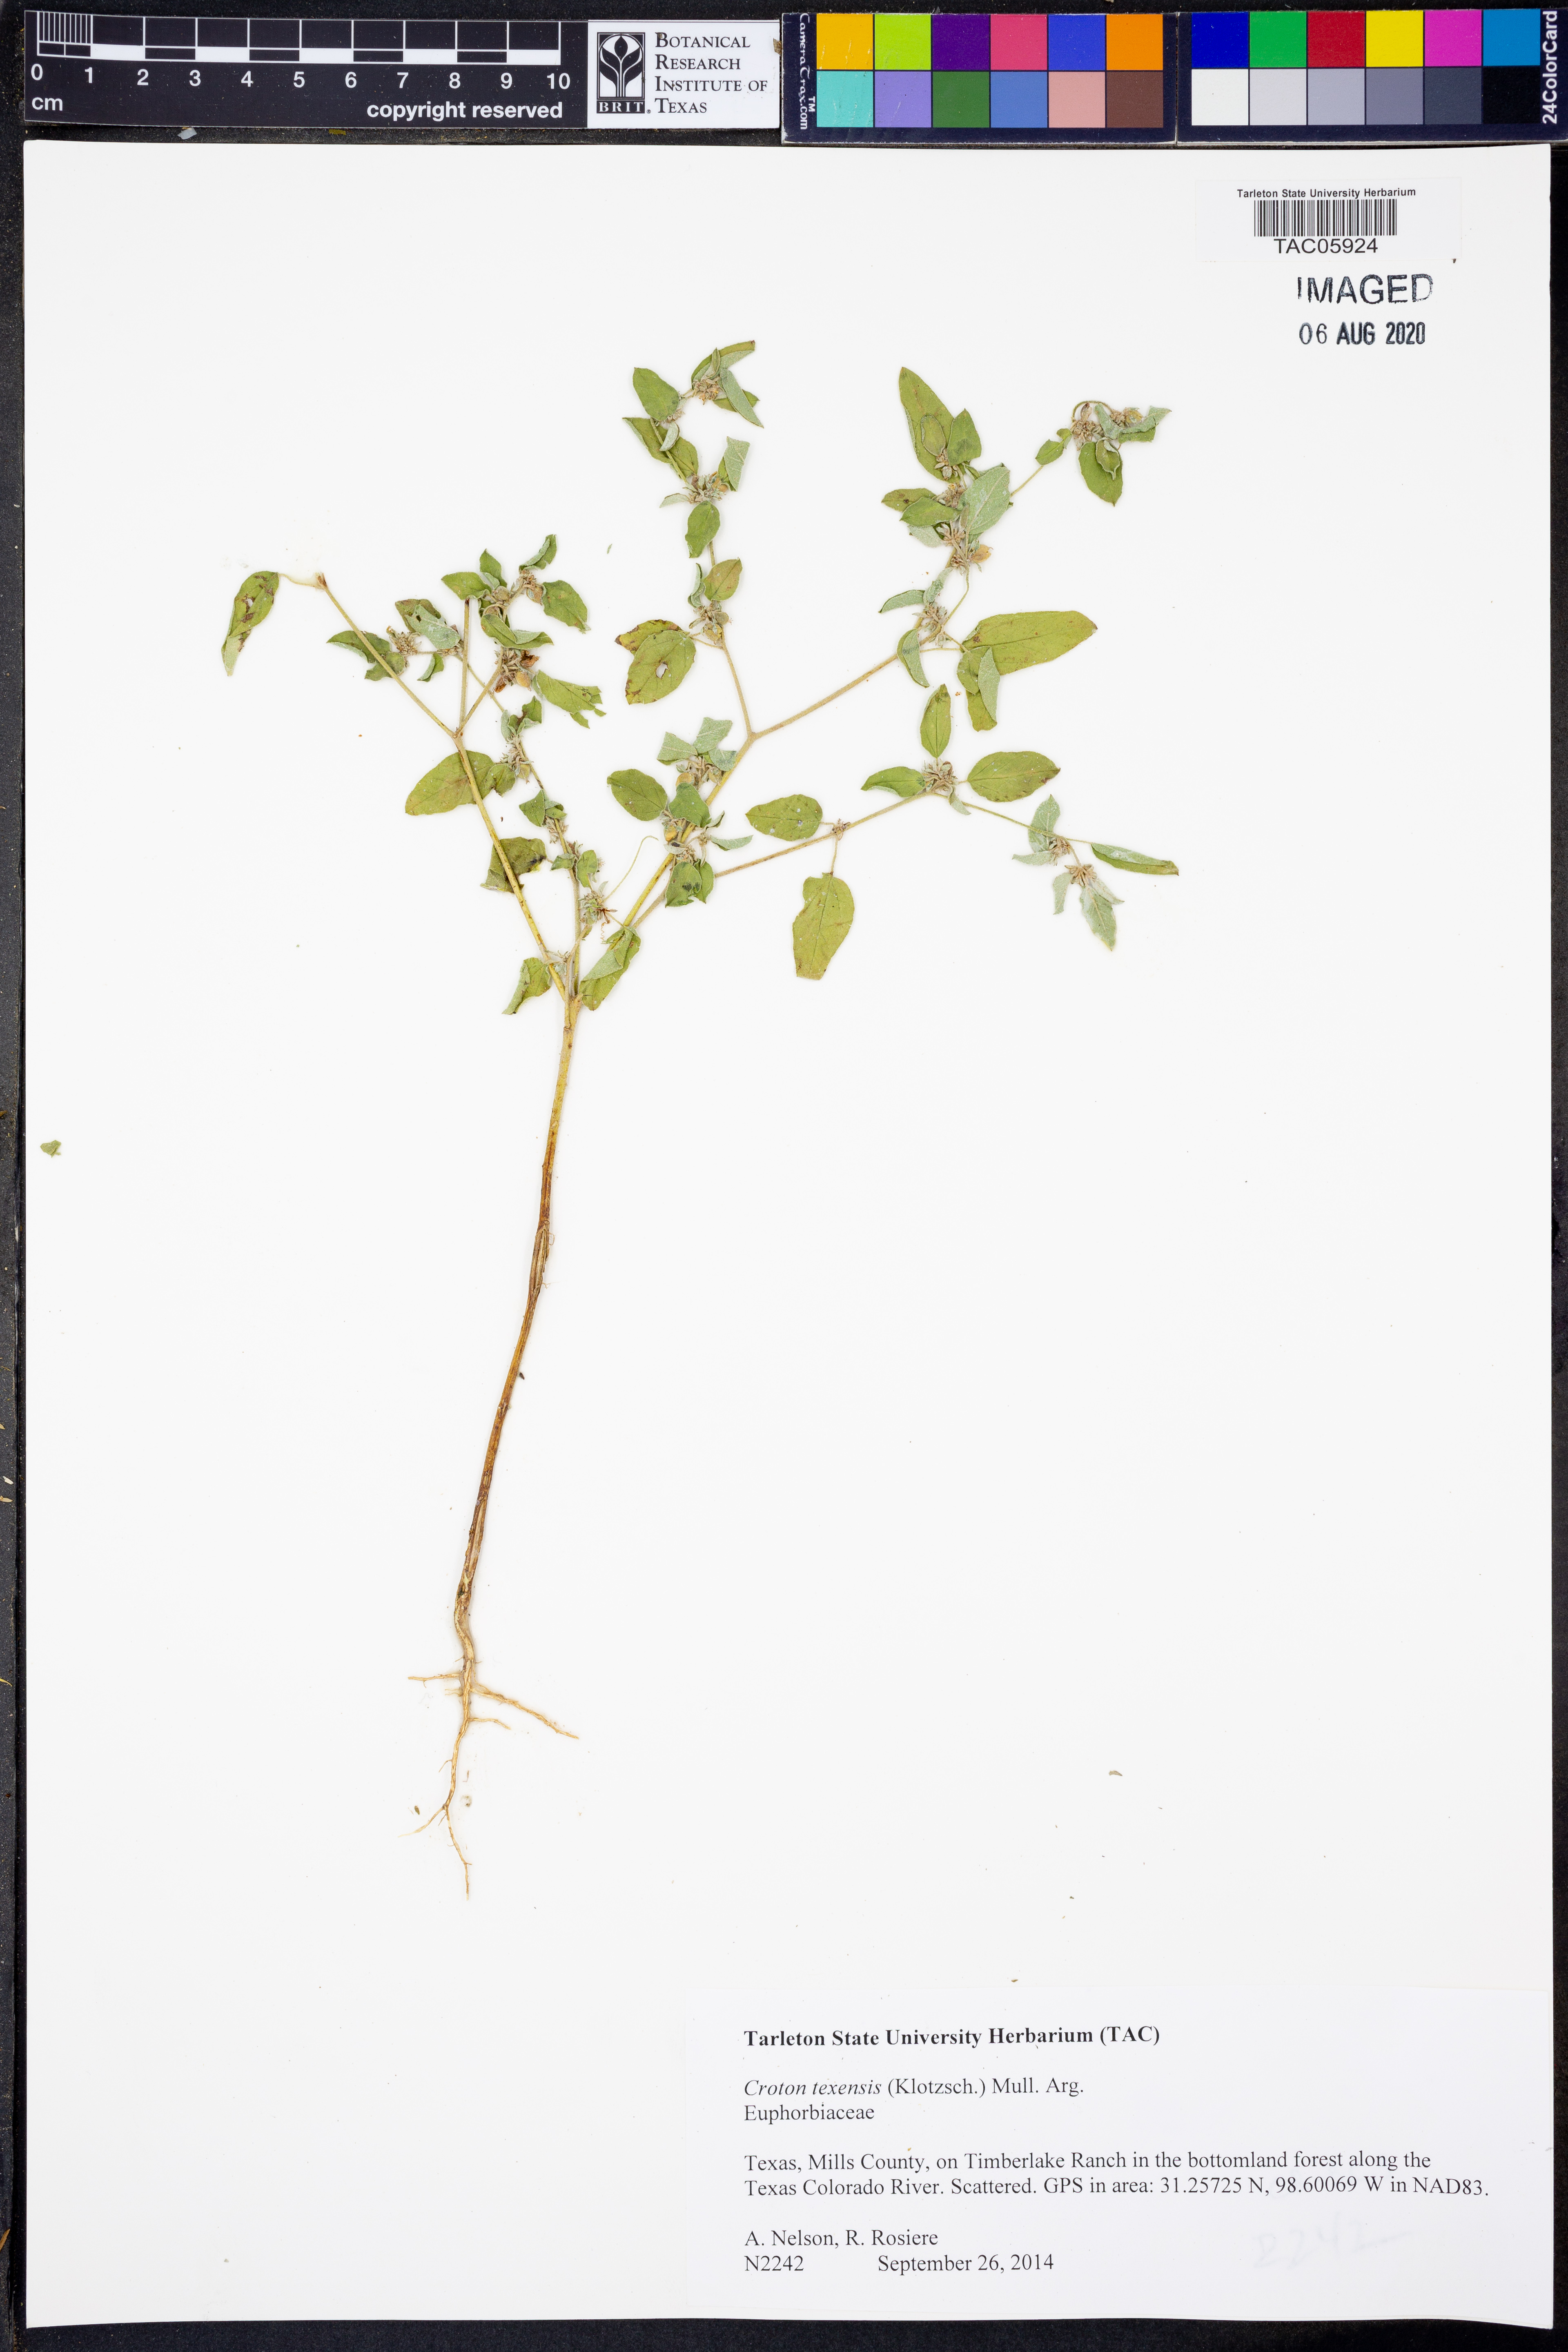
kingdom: Plantae
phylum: Tracheophyta
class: Magnoliopsida
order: Malpighiales
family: Euphorbiaceae
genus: Croton
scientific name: Croton texensis
